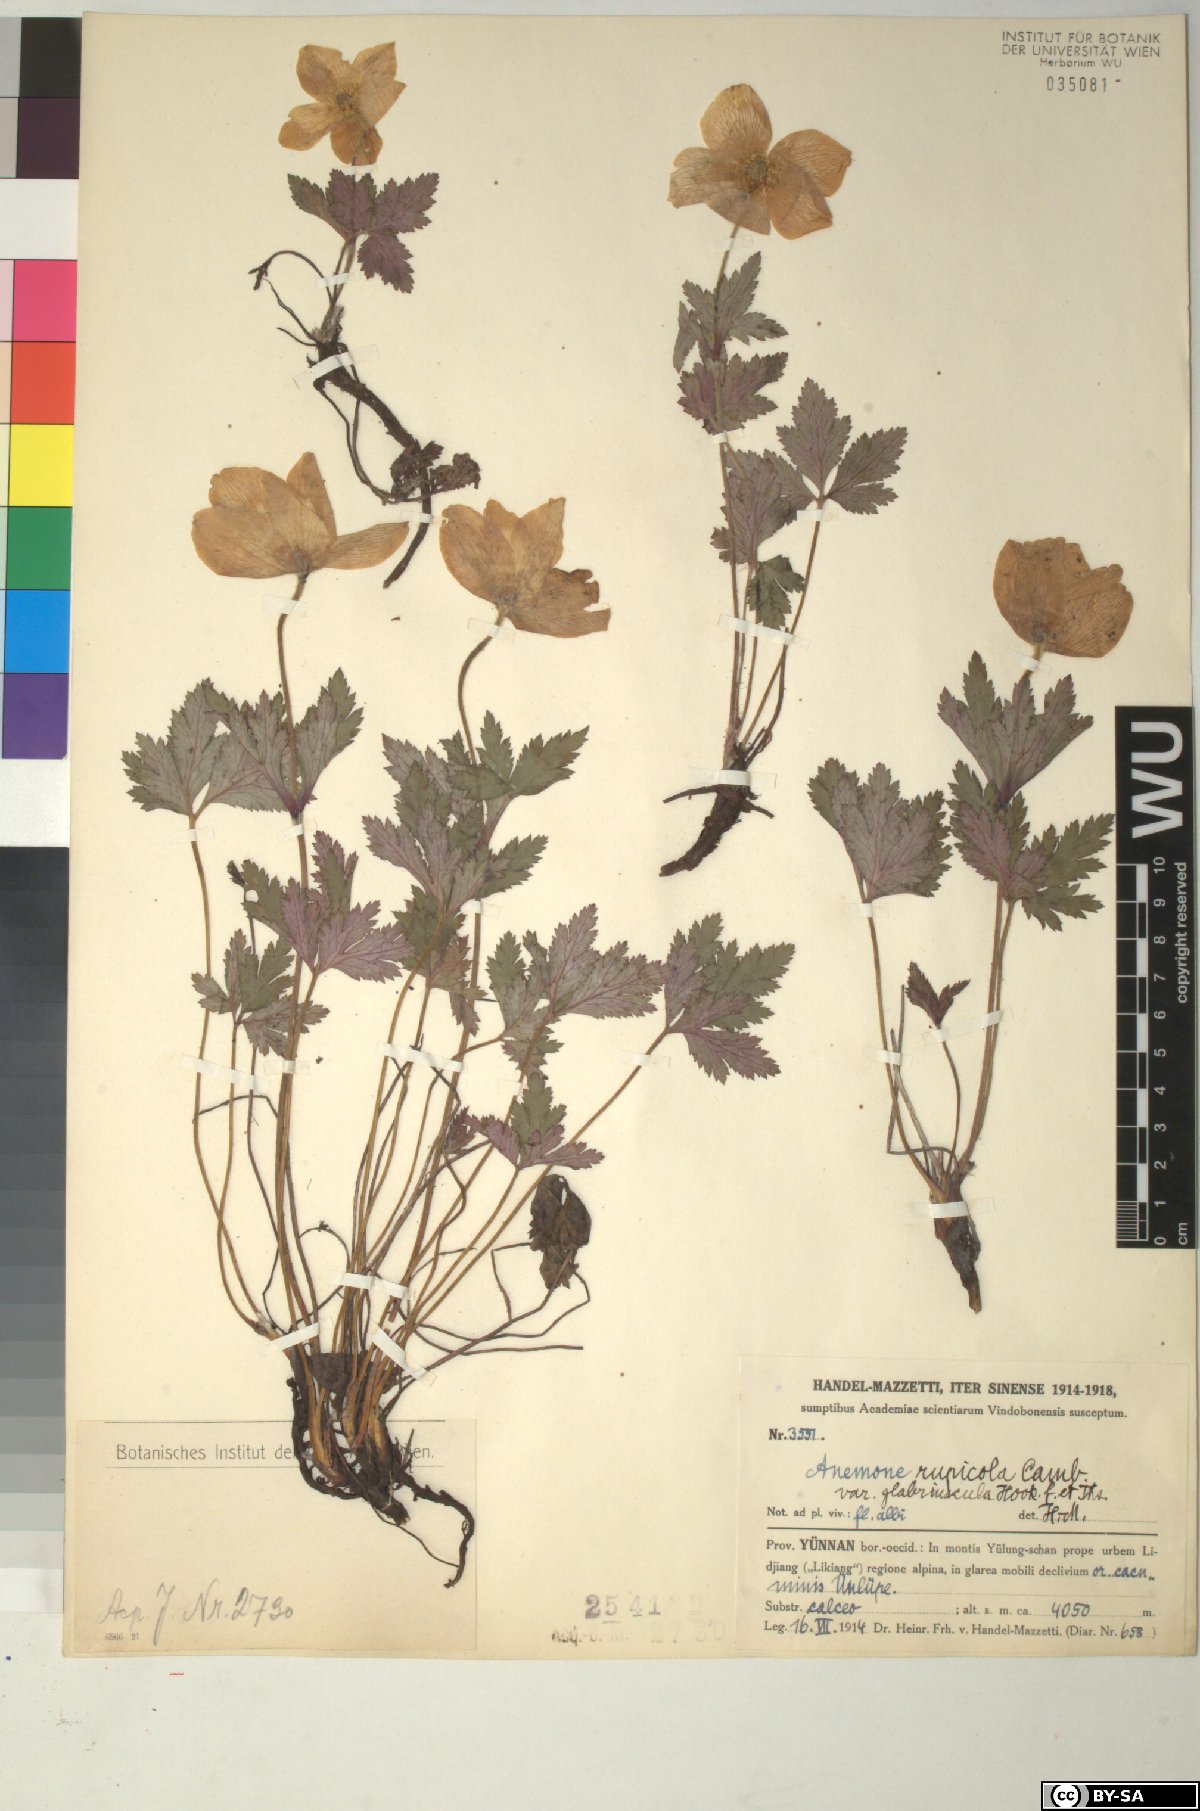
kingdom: Plantae
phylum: Tracheophyta
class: Magnoliopsida
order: Ranunculales
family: Ranunculaceae
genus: Eriocapitella
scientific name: Eriocapitella rupicola
